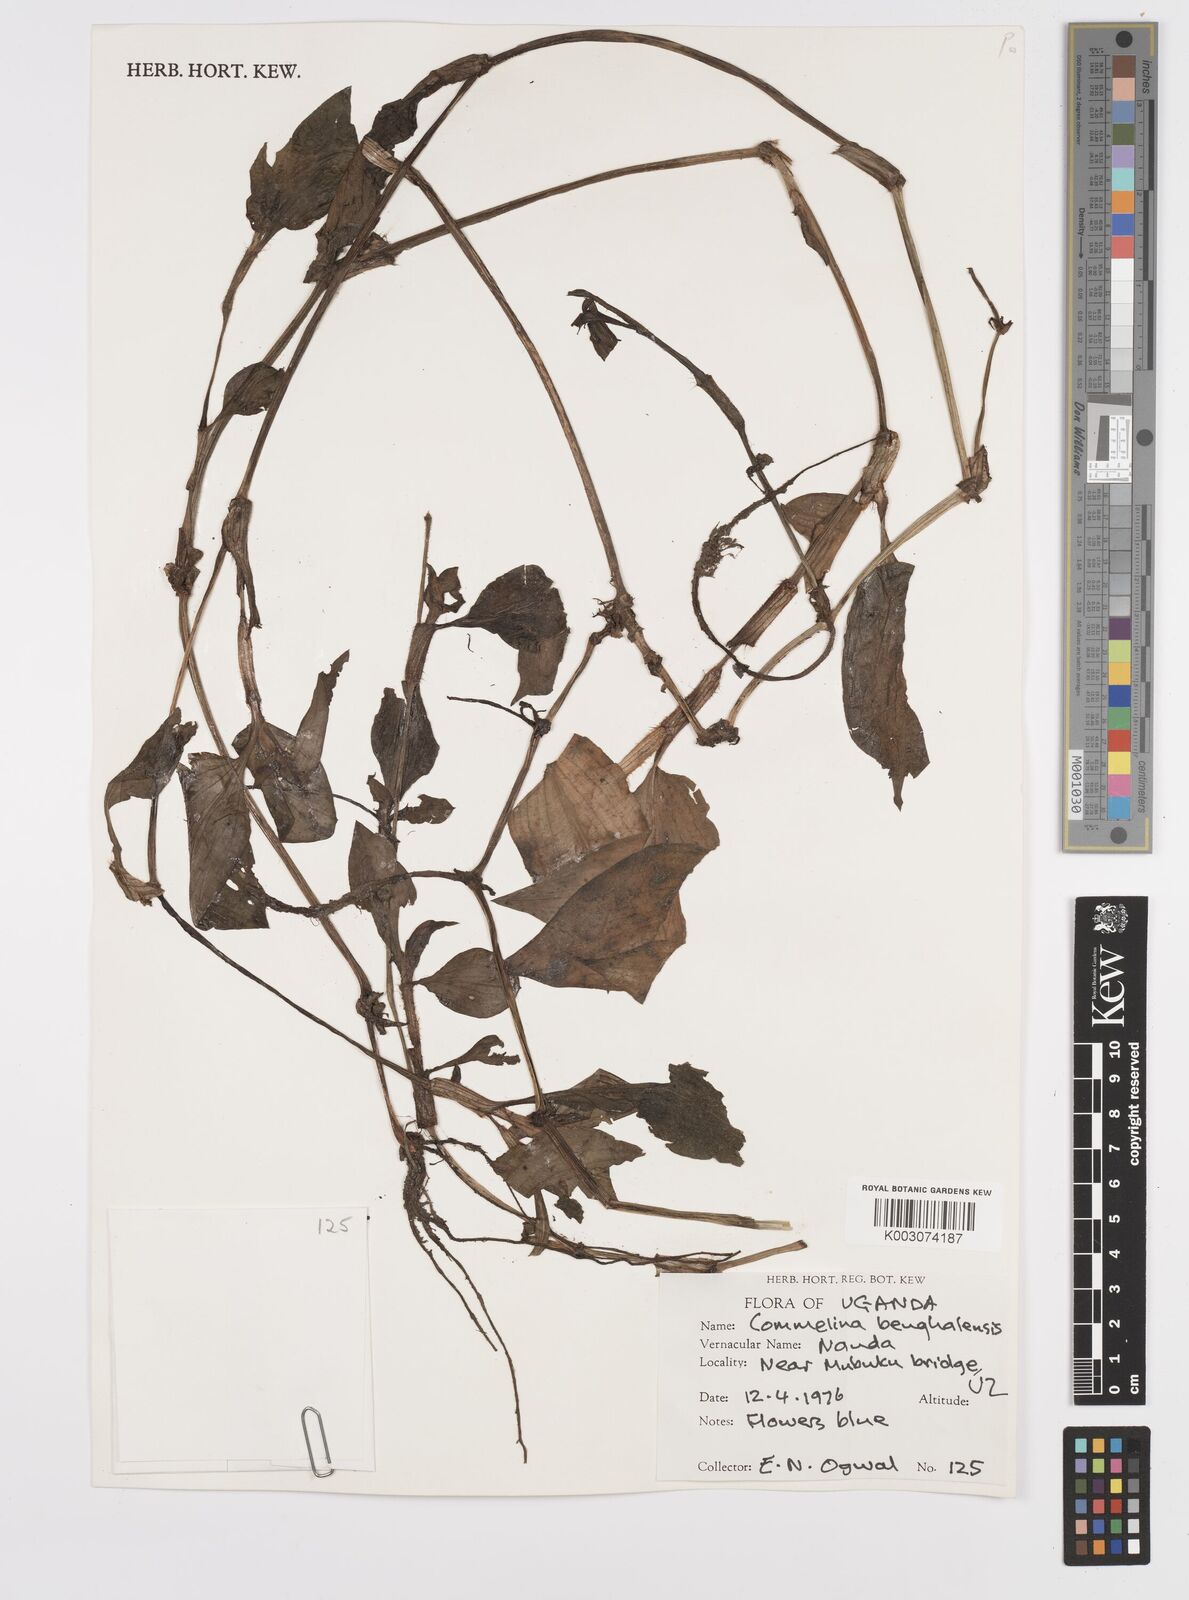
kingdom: Plantae
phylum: Tracheophyta
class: Liliopsida
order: Commelinales
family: Commelinaceae
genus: Commelina
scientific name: Commelina benghalensis
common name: Jio
